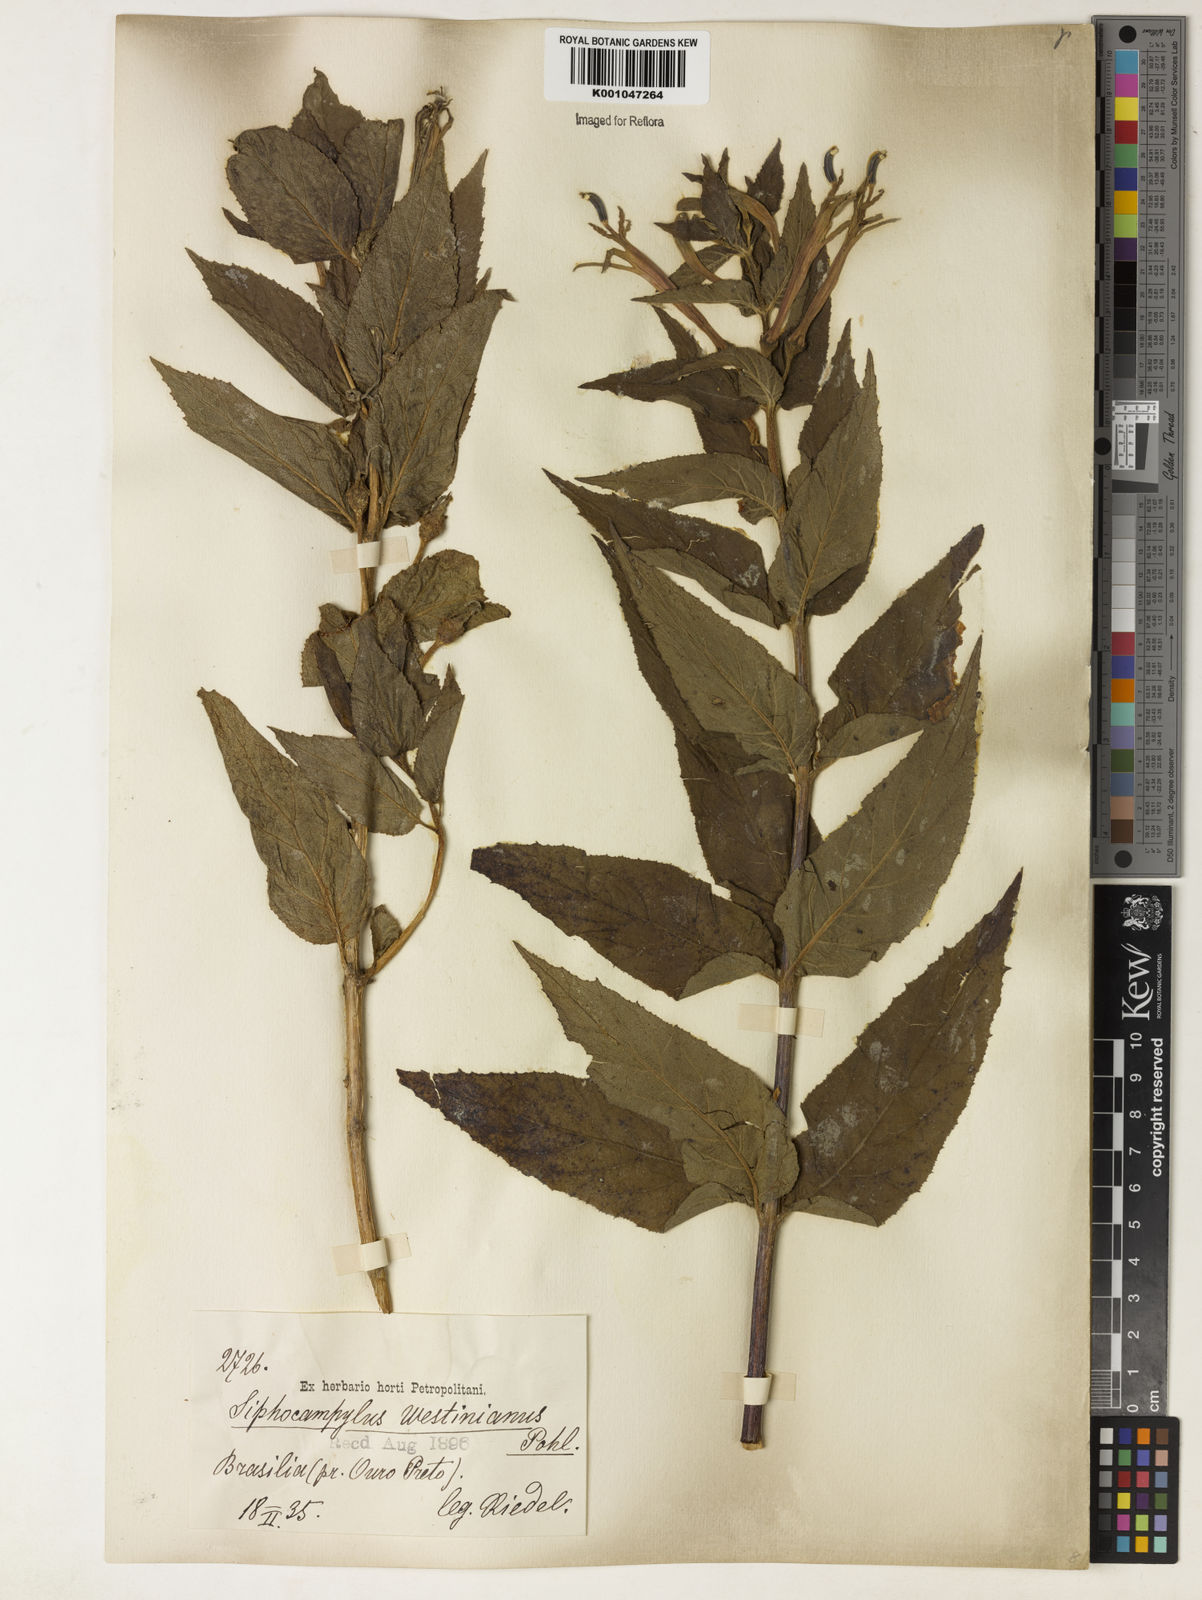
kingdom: Plantae
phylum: Tracheophyta
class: Magnoliopsida
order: Asterales
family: Campanulaceae
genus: Siphocampylus
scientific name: Siphocampylus westinianus
